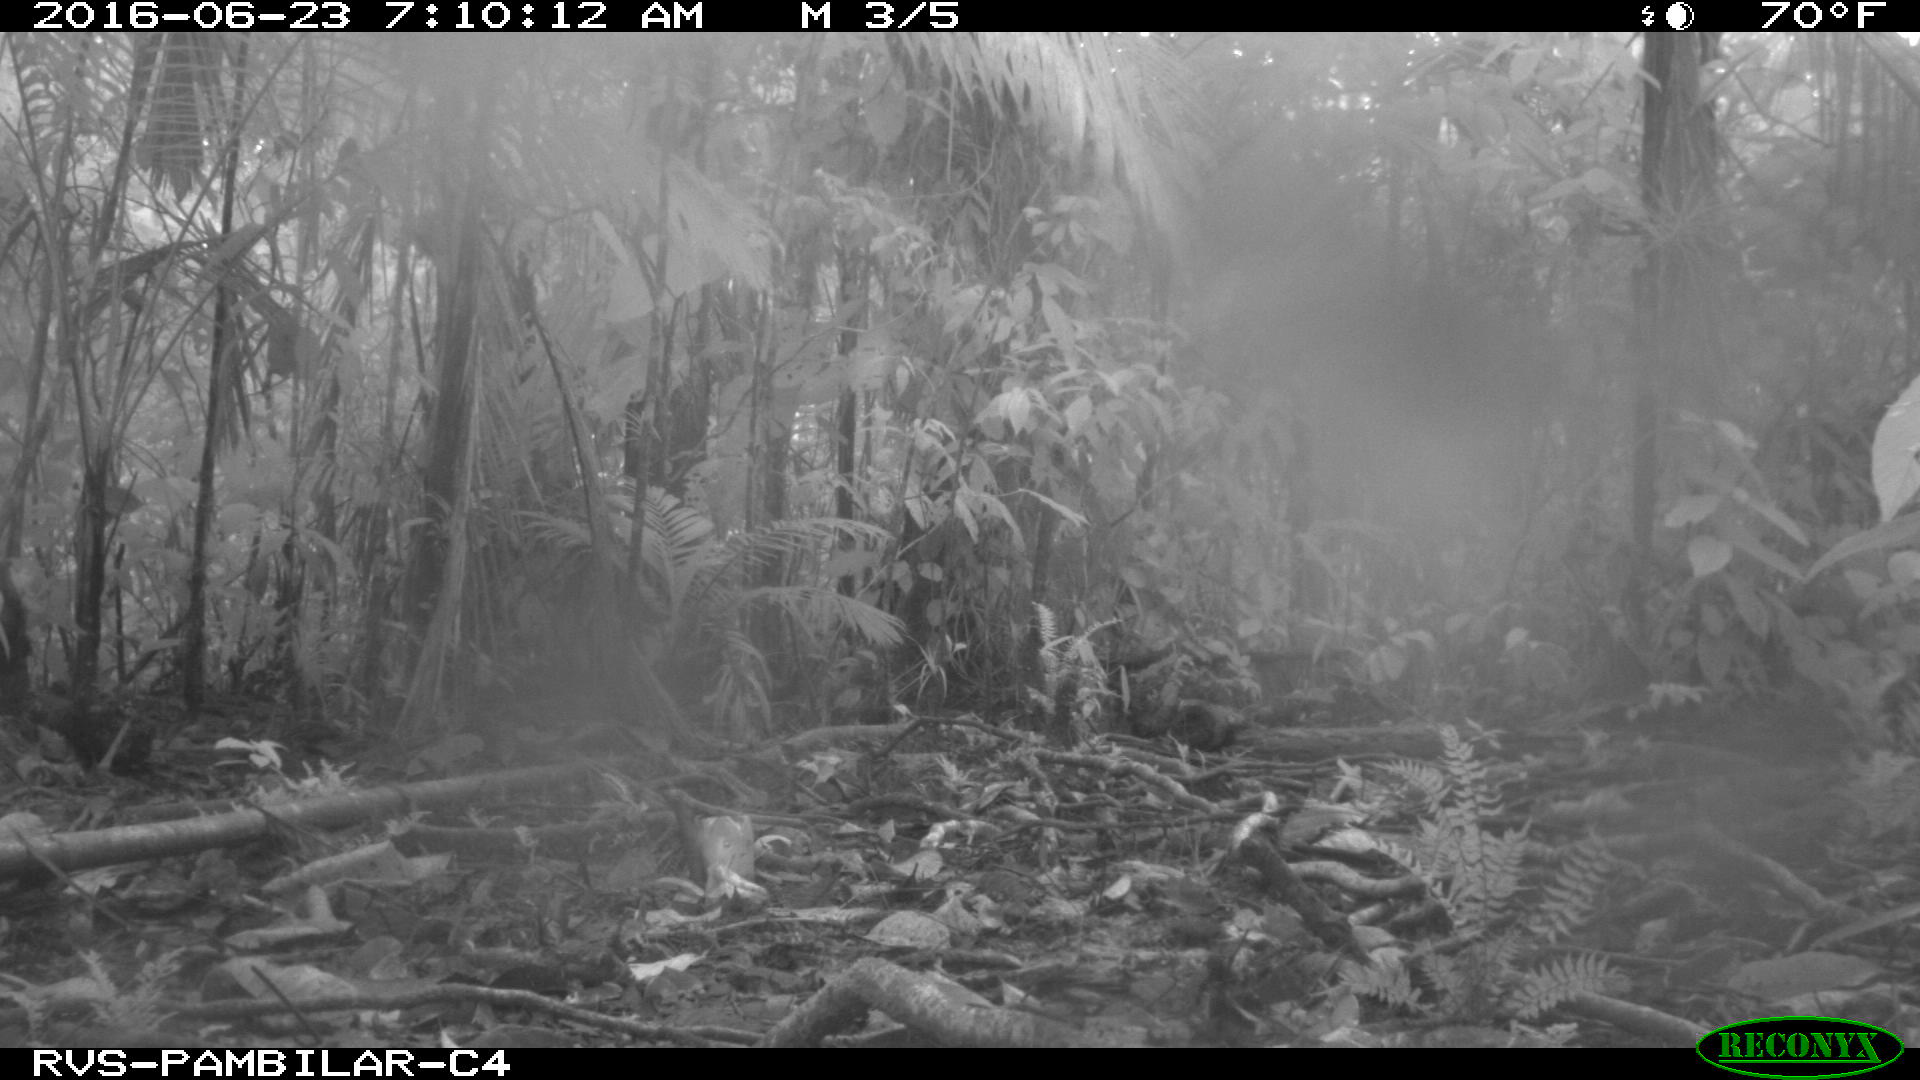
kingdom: Animalia
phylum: Chordata
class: Mammalia
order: Rodentia
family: Dasyproctidae
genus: Dasyprocta
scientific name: Dasyprocta punctata
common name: Central american agouti
